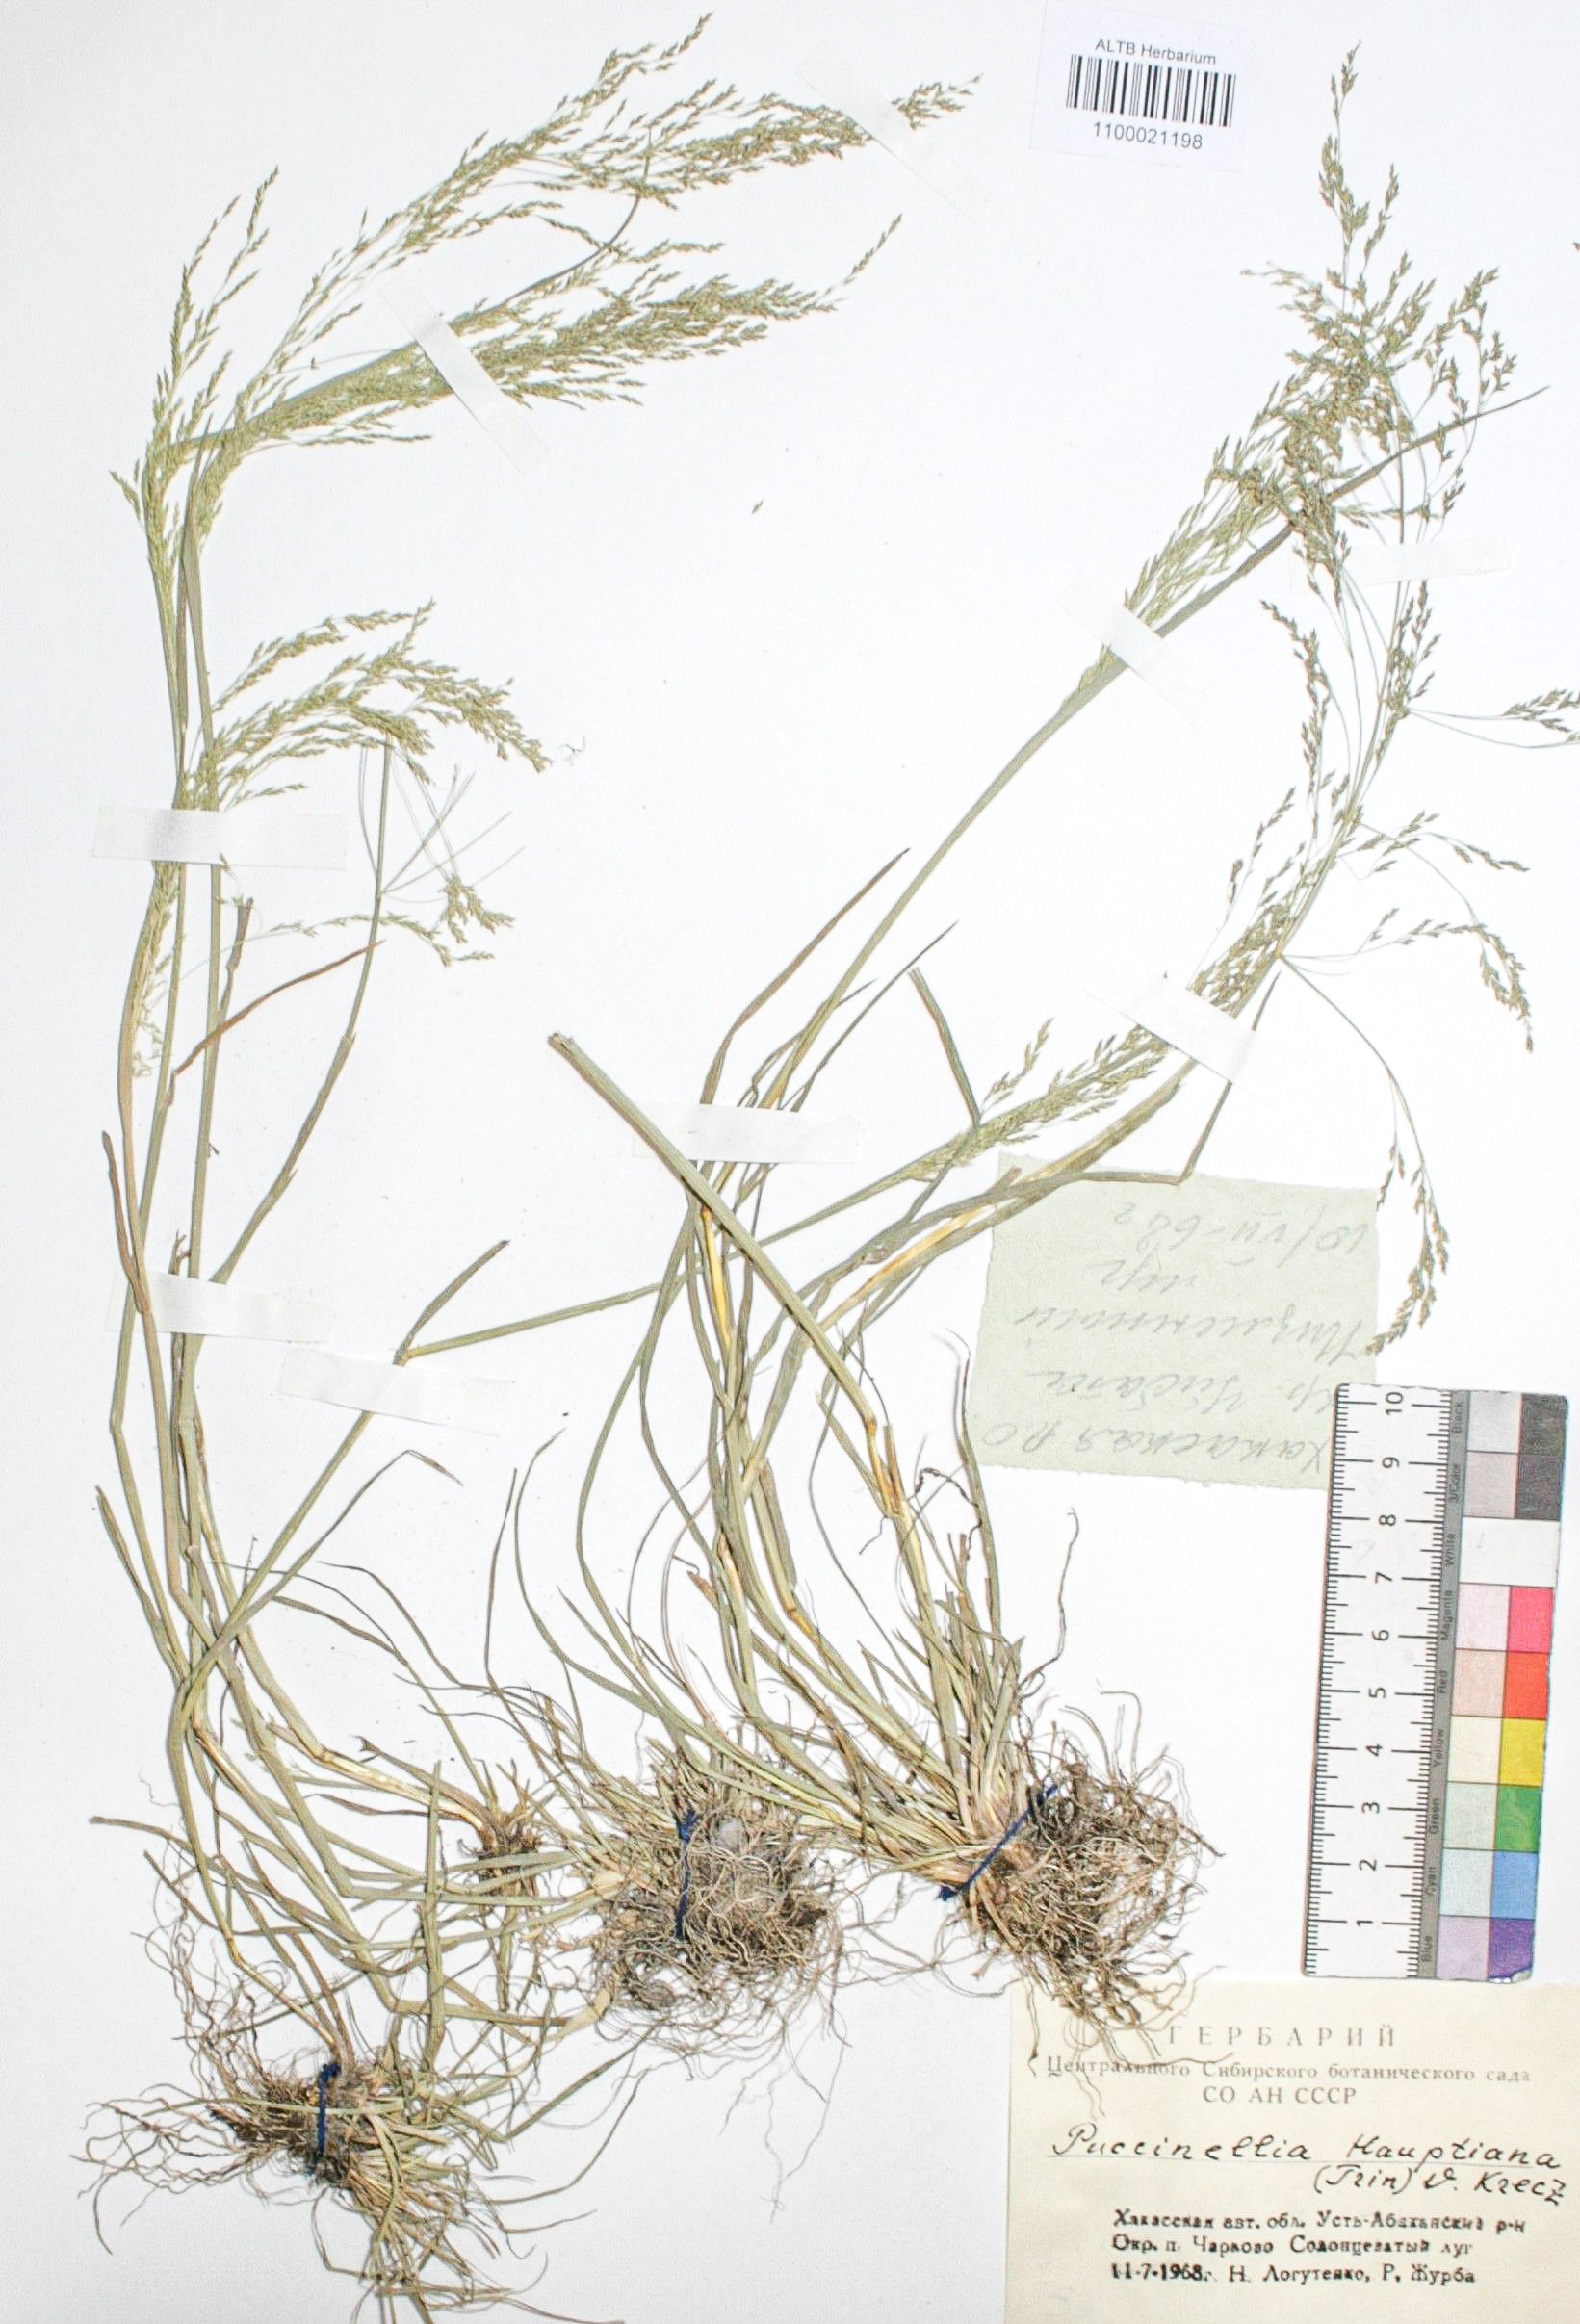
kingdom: Plantae
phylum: Tracheophyta
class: Liliopsida
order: Poales
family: Poaceae
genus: Puccinellia
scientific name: Puccinellia hauptiana
